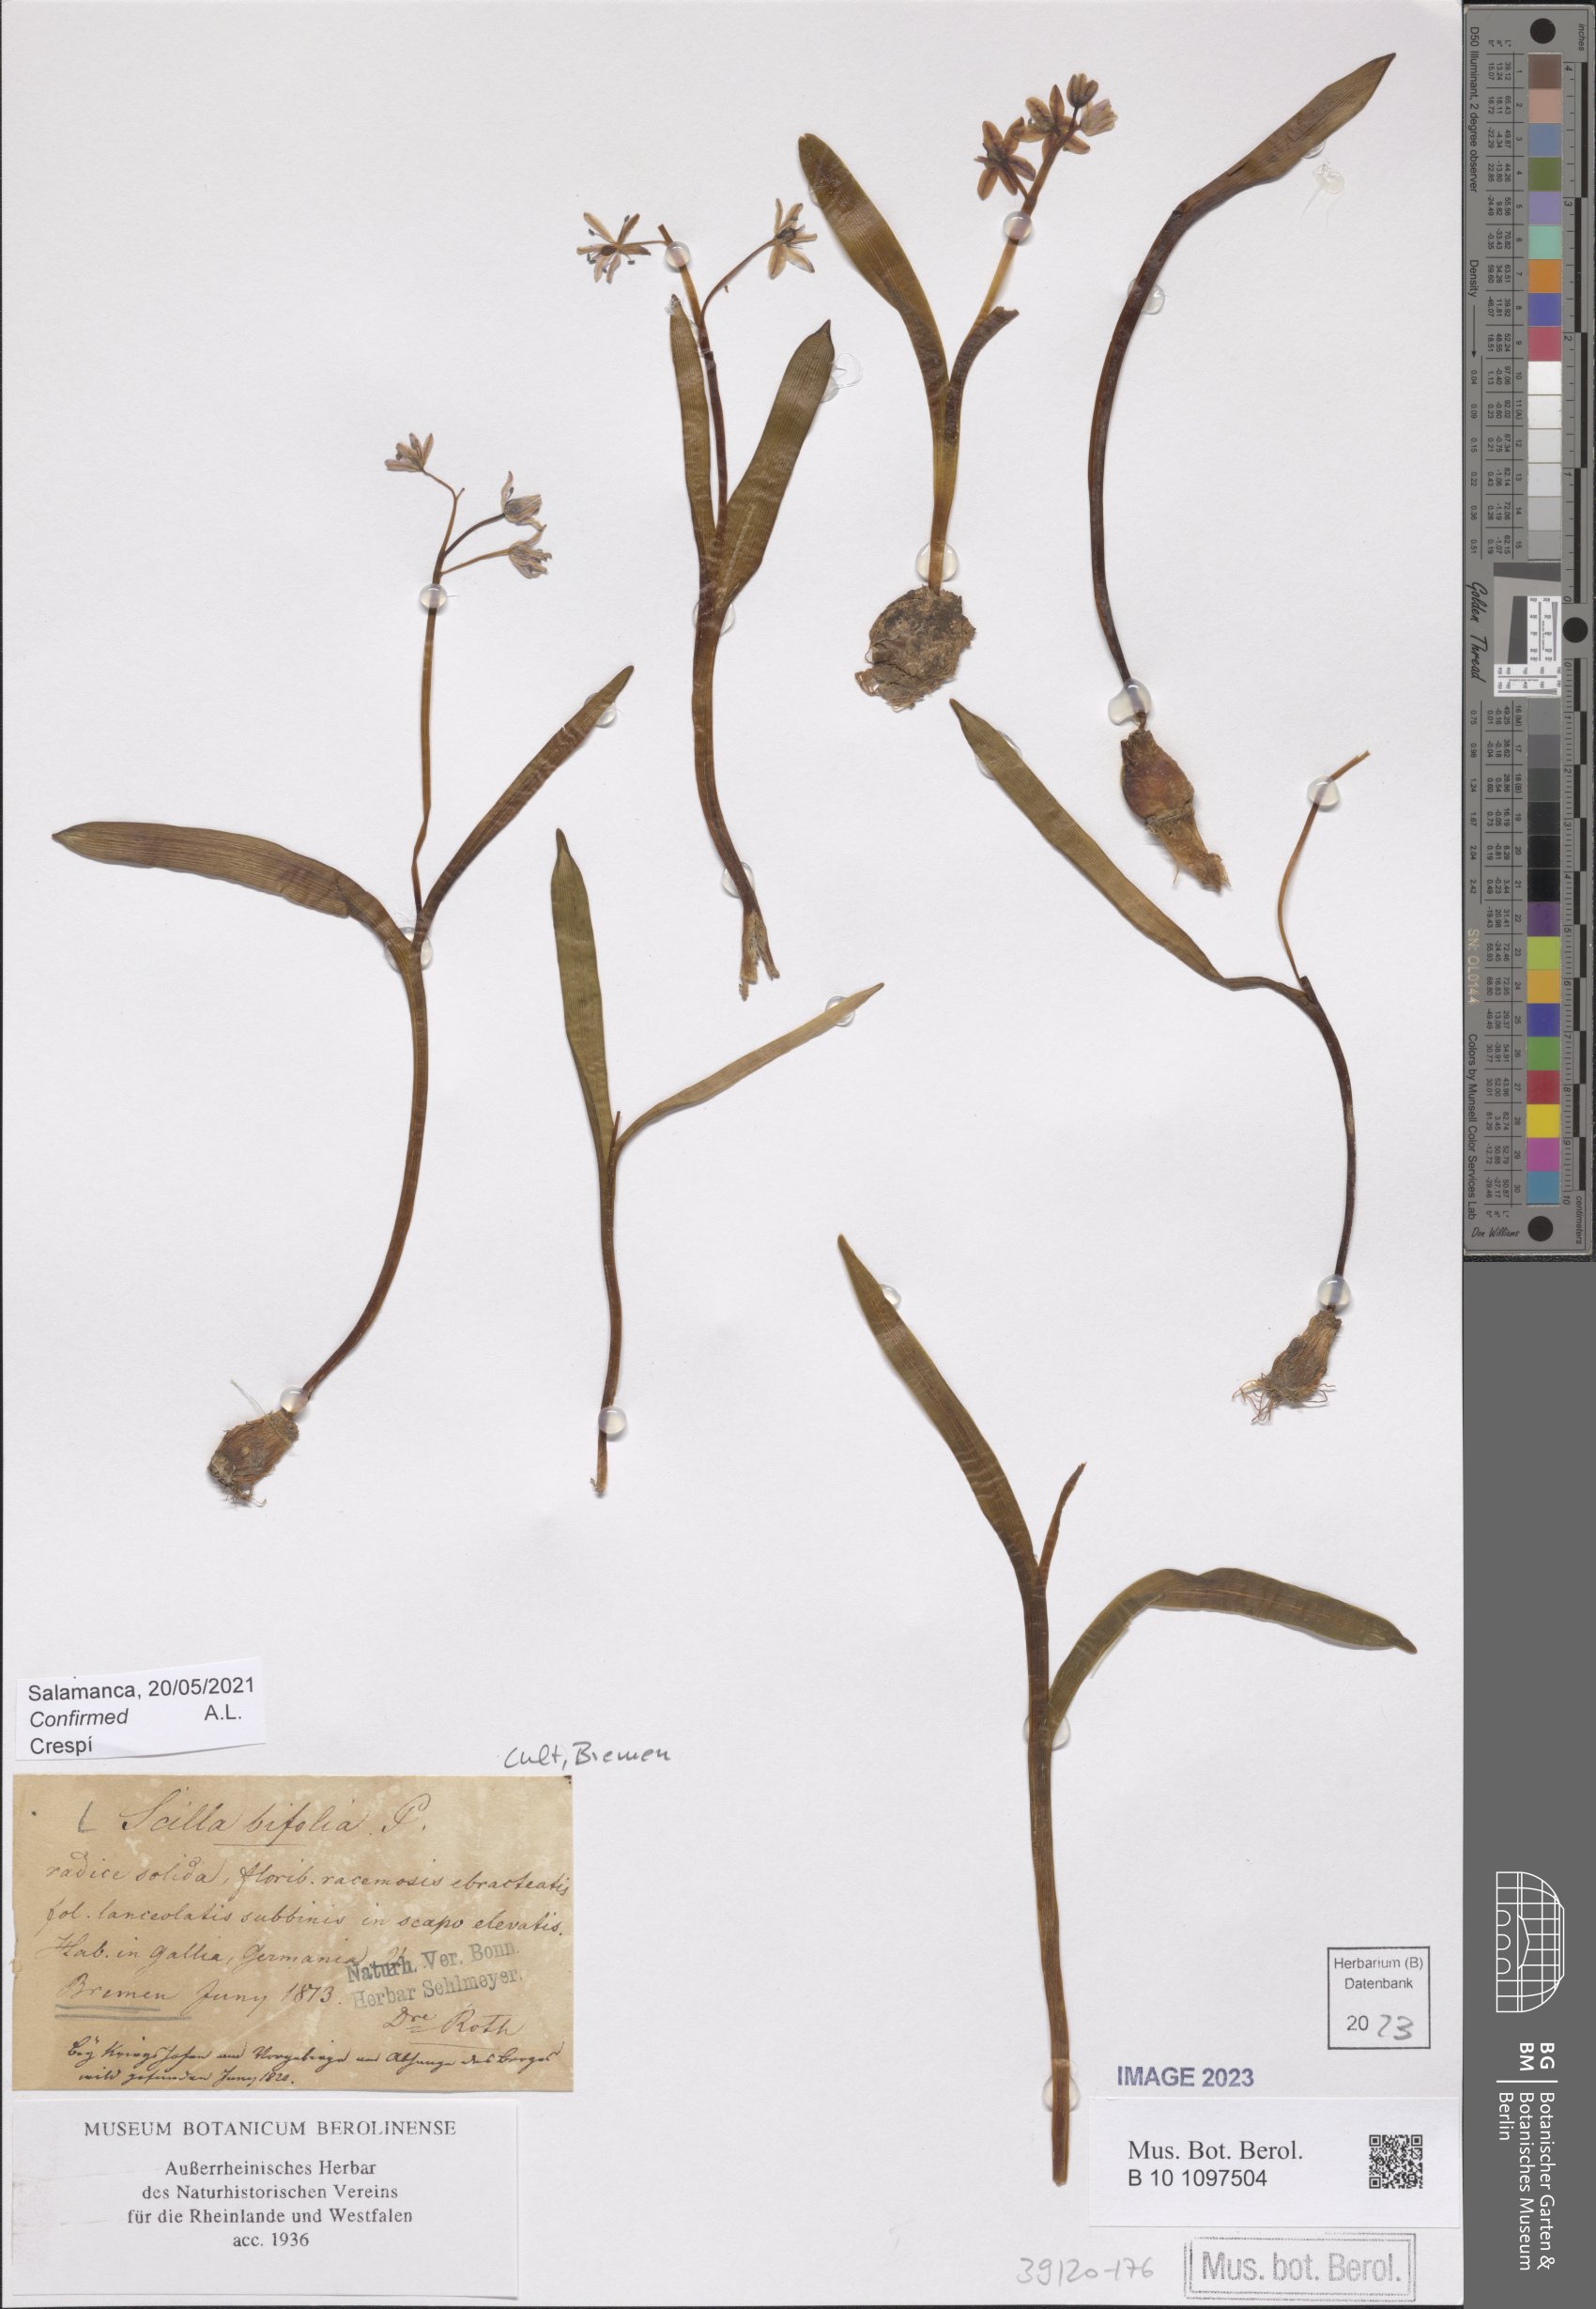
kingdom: Plantae
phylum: Tracheophyta
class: Liliopsida
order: Asparagales
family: Asparagaceae
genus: Scilla
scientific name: Scilla bifolia
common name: Alpine squill
